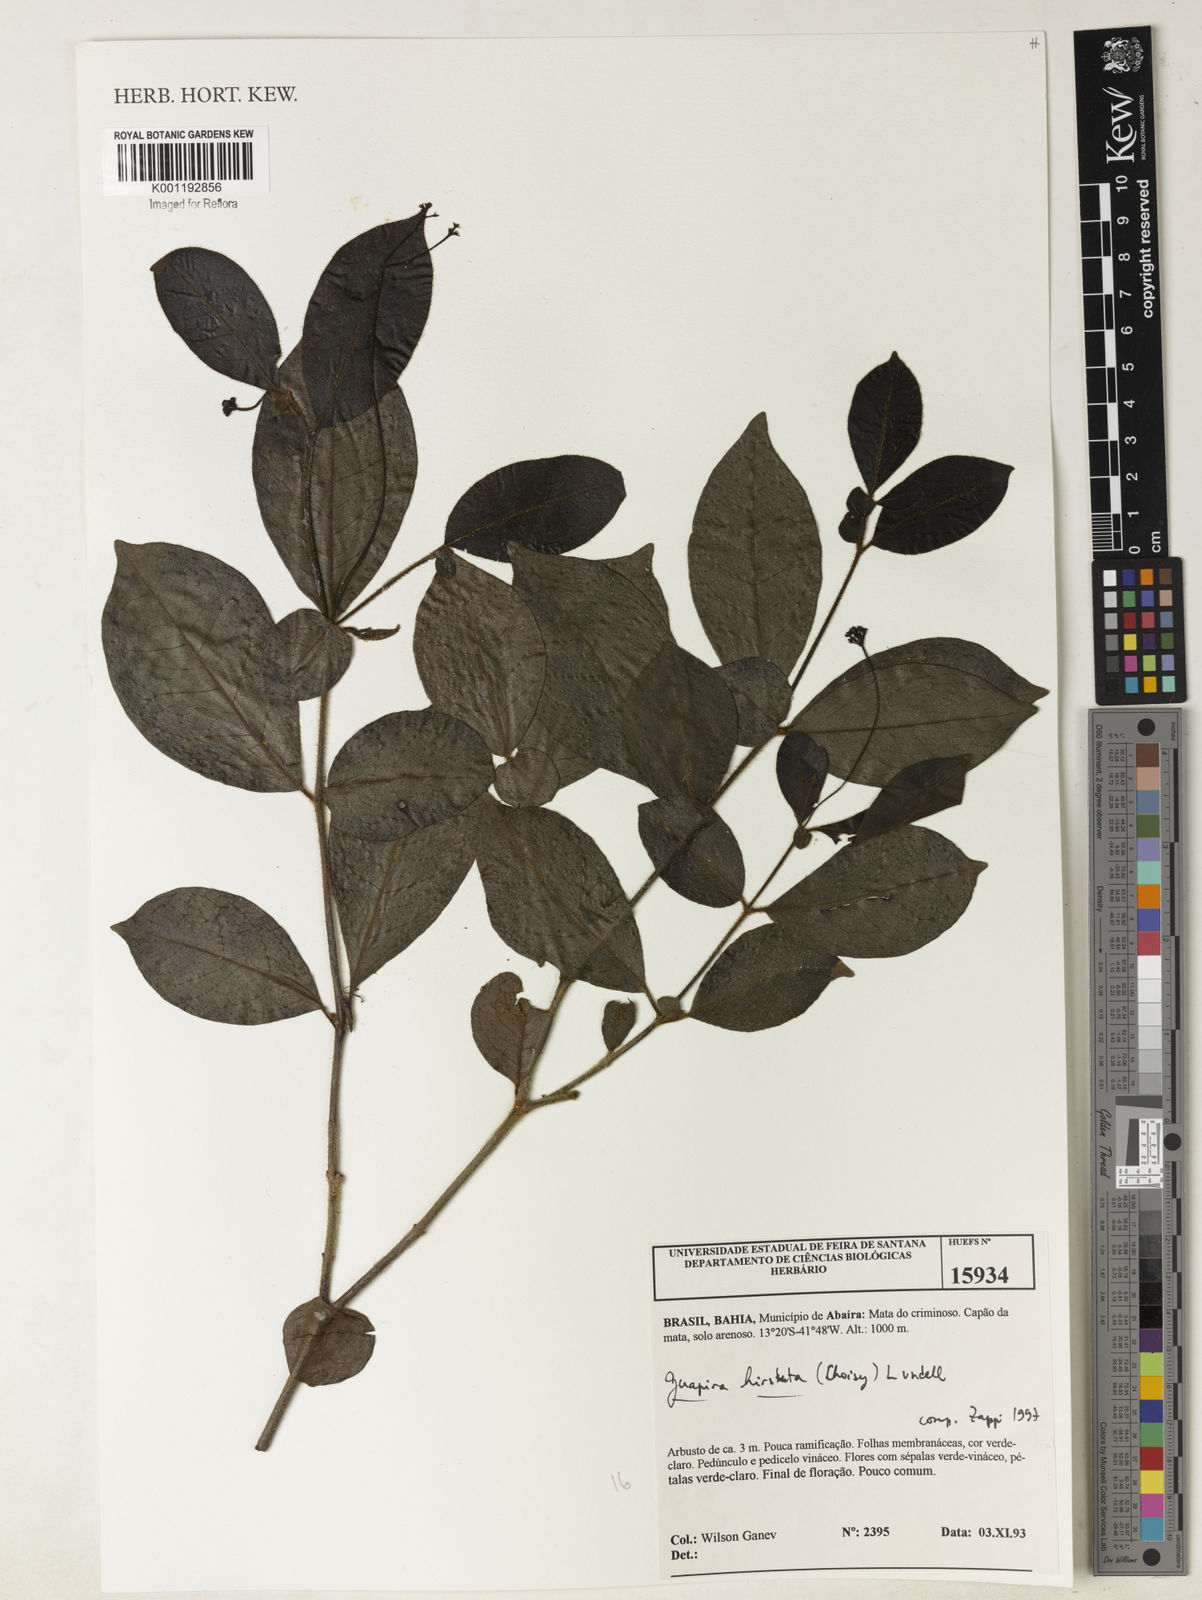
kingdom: Plantae
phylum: Tracheophyta
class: Magnoliopsida
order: Caryophyllales
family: Nyctaginaceae
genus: Guapira
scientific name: Guapira hirsuta
